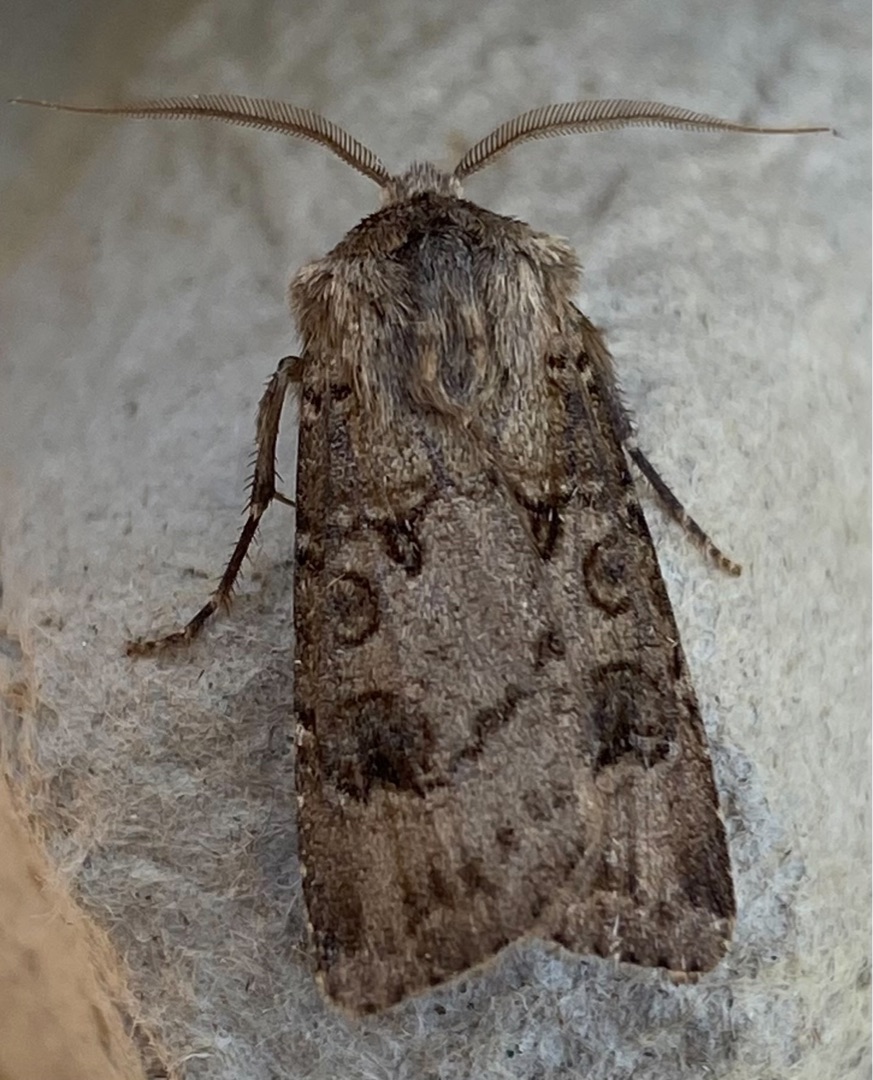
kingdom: Animalia
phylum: Arthropoda
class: Insecta
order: Lepidoptera
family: Noctuidae
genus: Agrotis
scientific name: Agrotis clavis
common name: Nøgle-landmand
